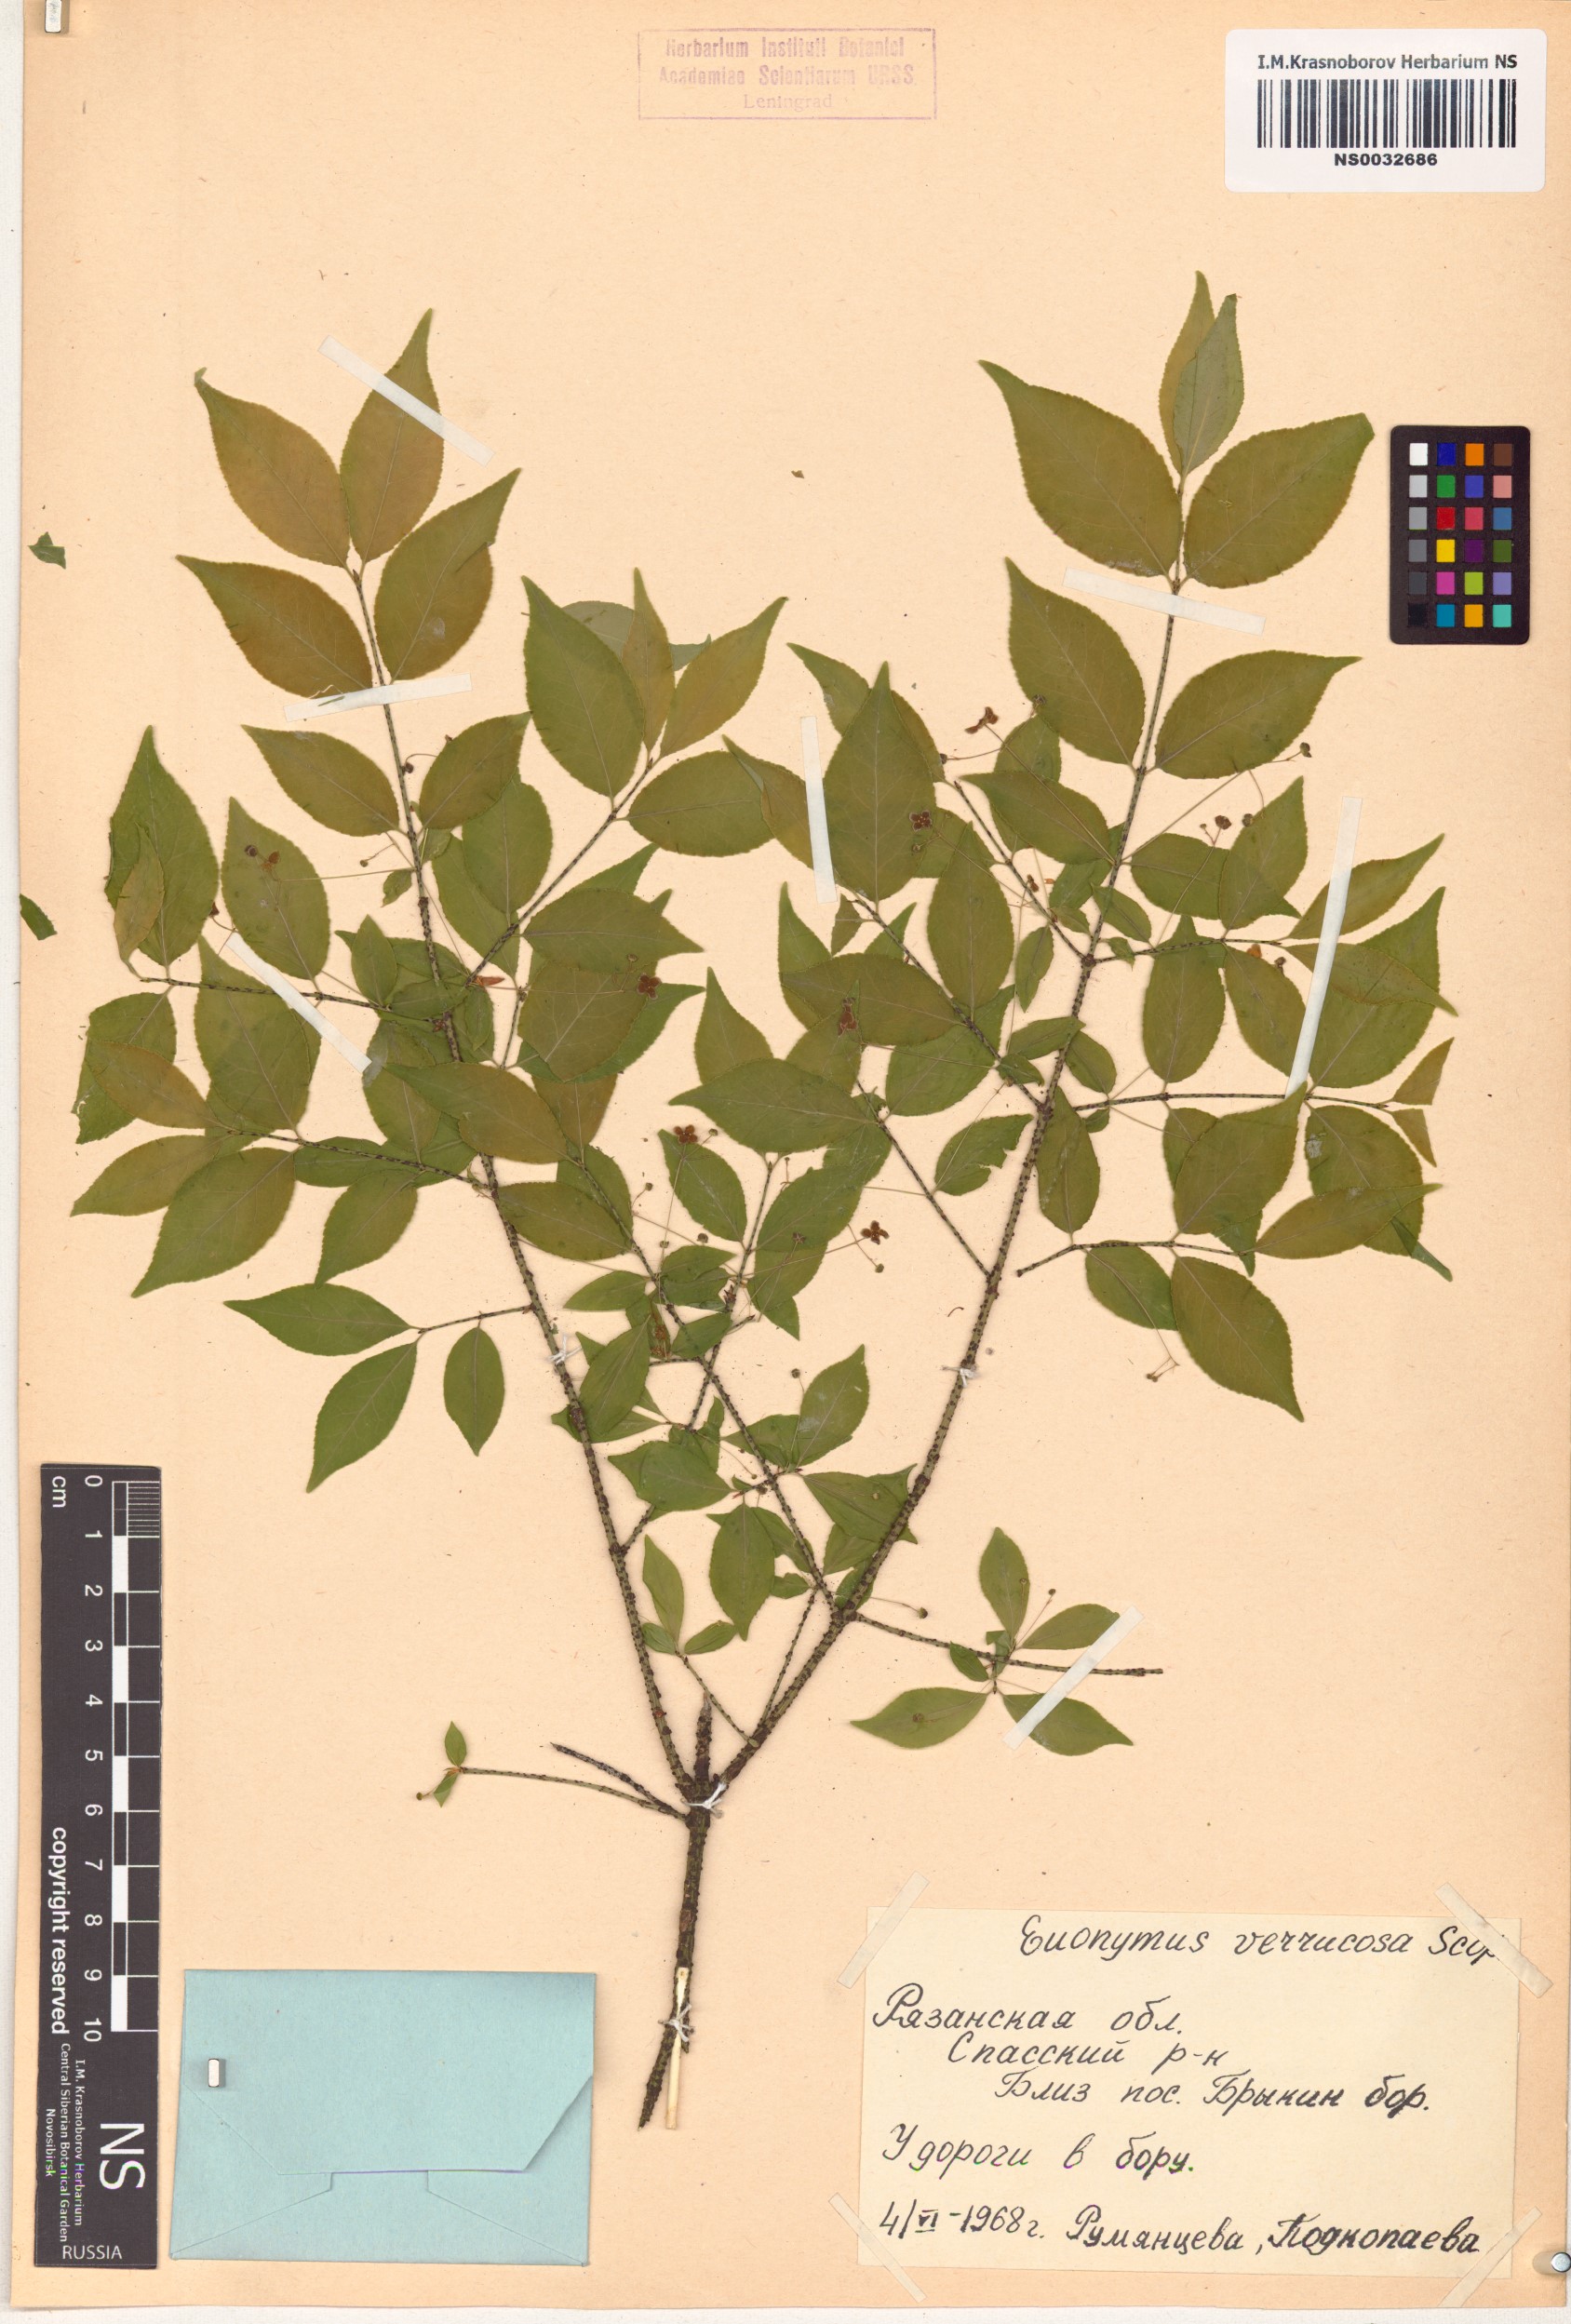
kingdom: Plantae
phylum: Tracheophyta
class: Magnoliopsida
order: Celastrales
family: Celastraceae
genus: Euonymus
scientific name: Euonymus verrucosus
